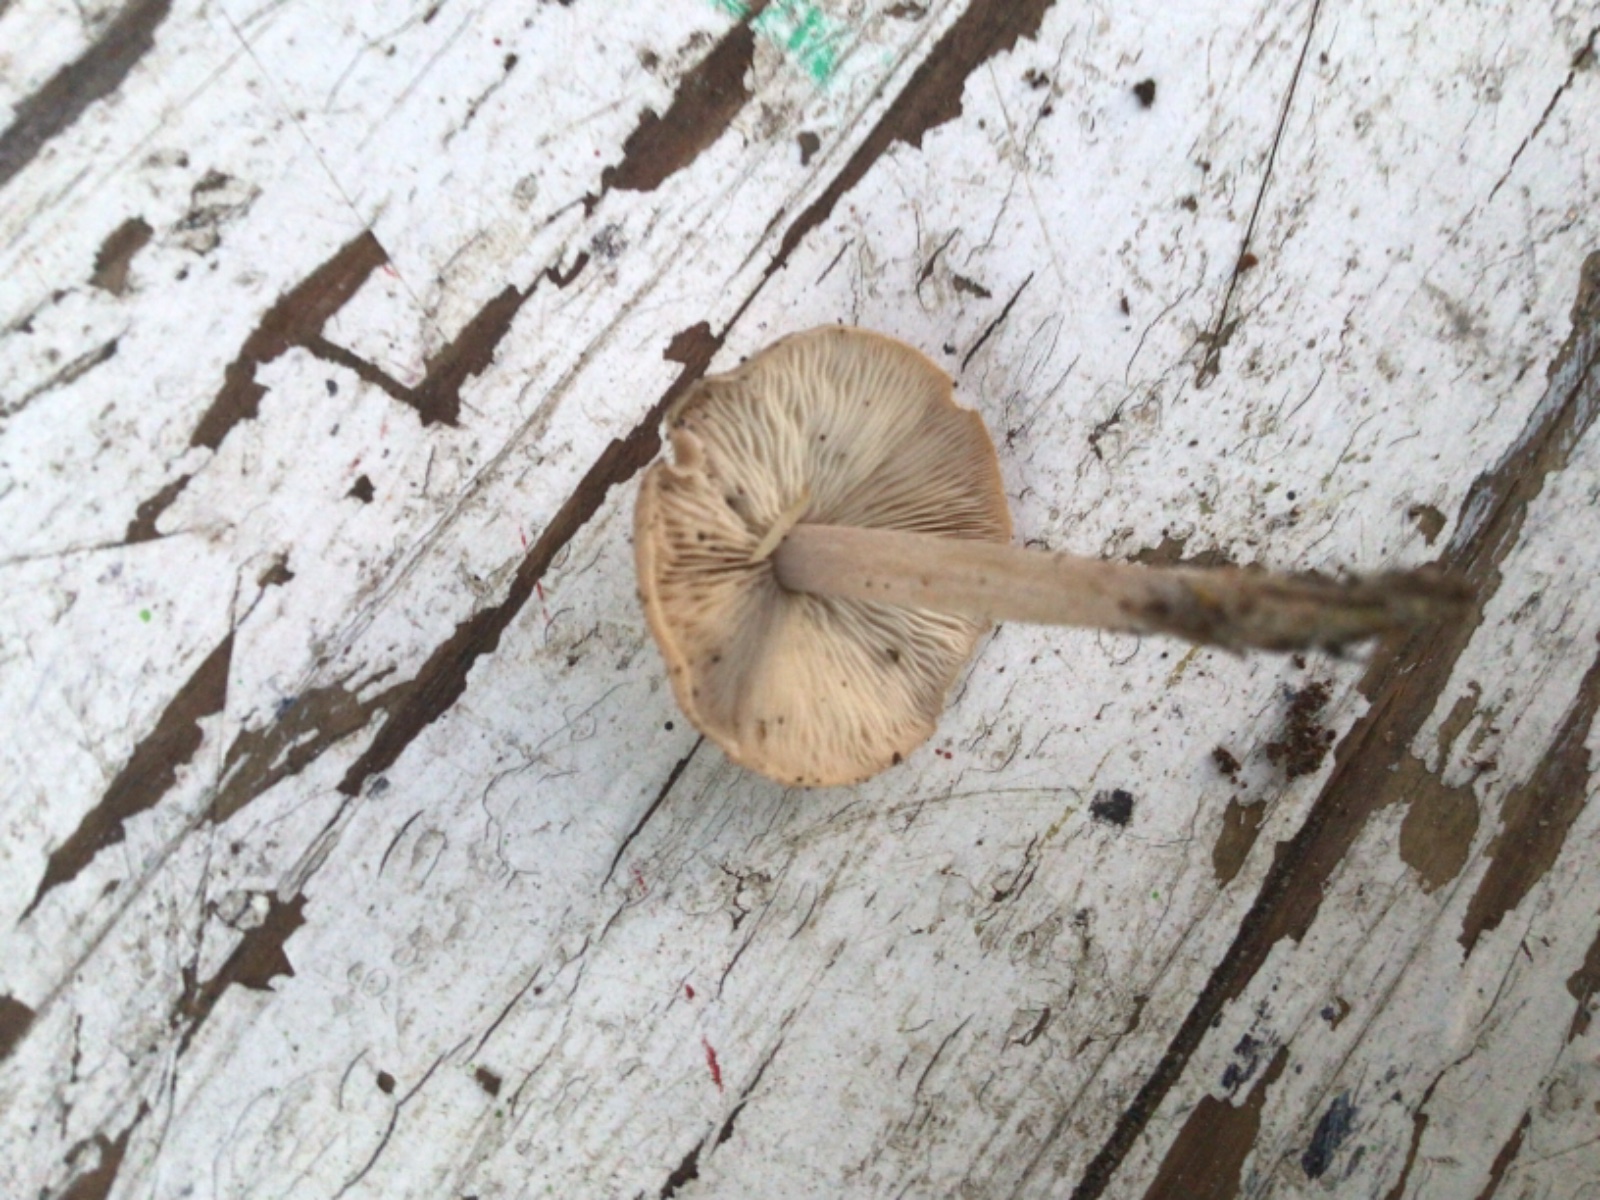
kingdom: Fungi
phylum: Basidiomycota
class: Agaricomycetes
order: Agaricales
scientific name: Agaricales
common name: champignonordenen
